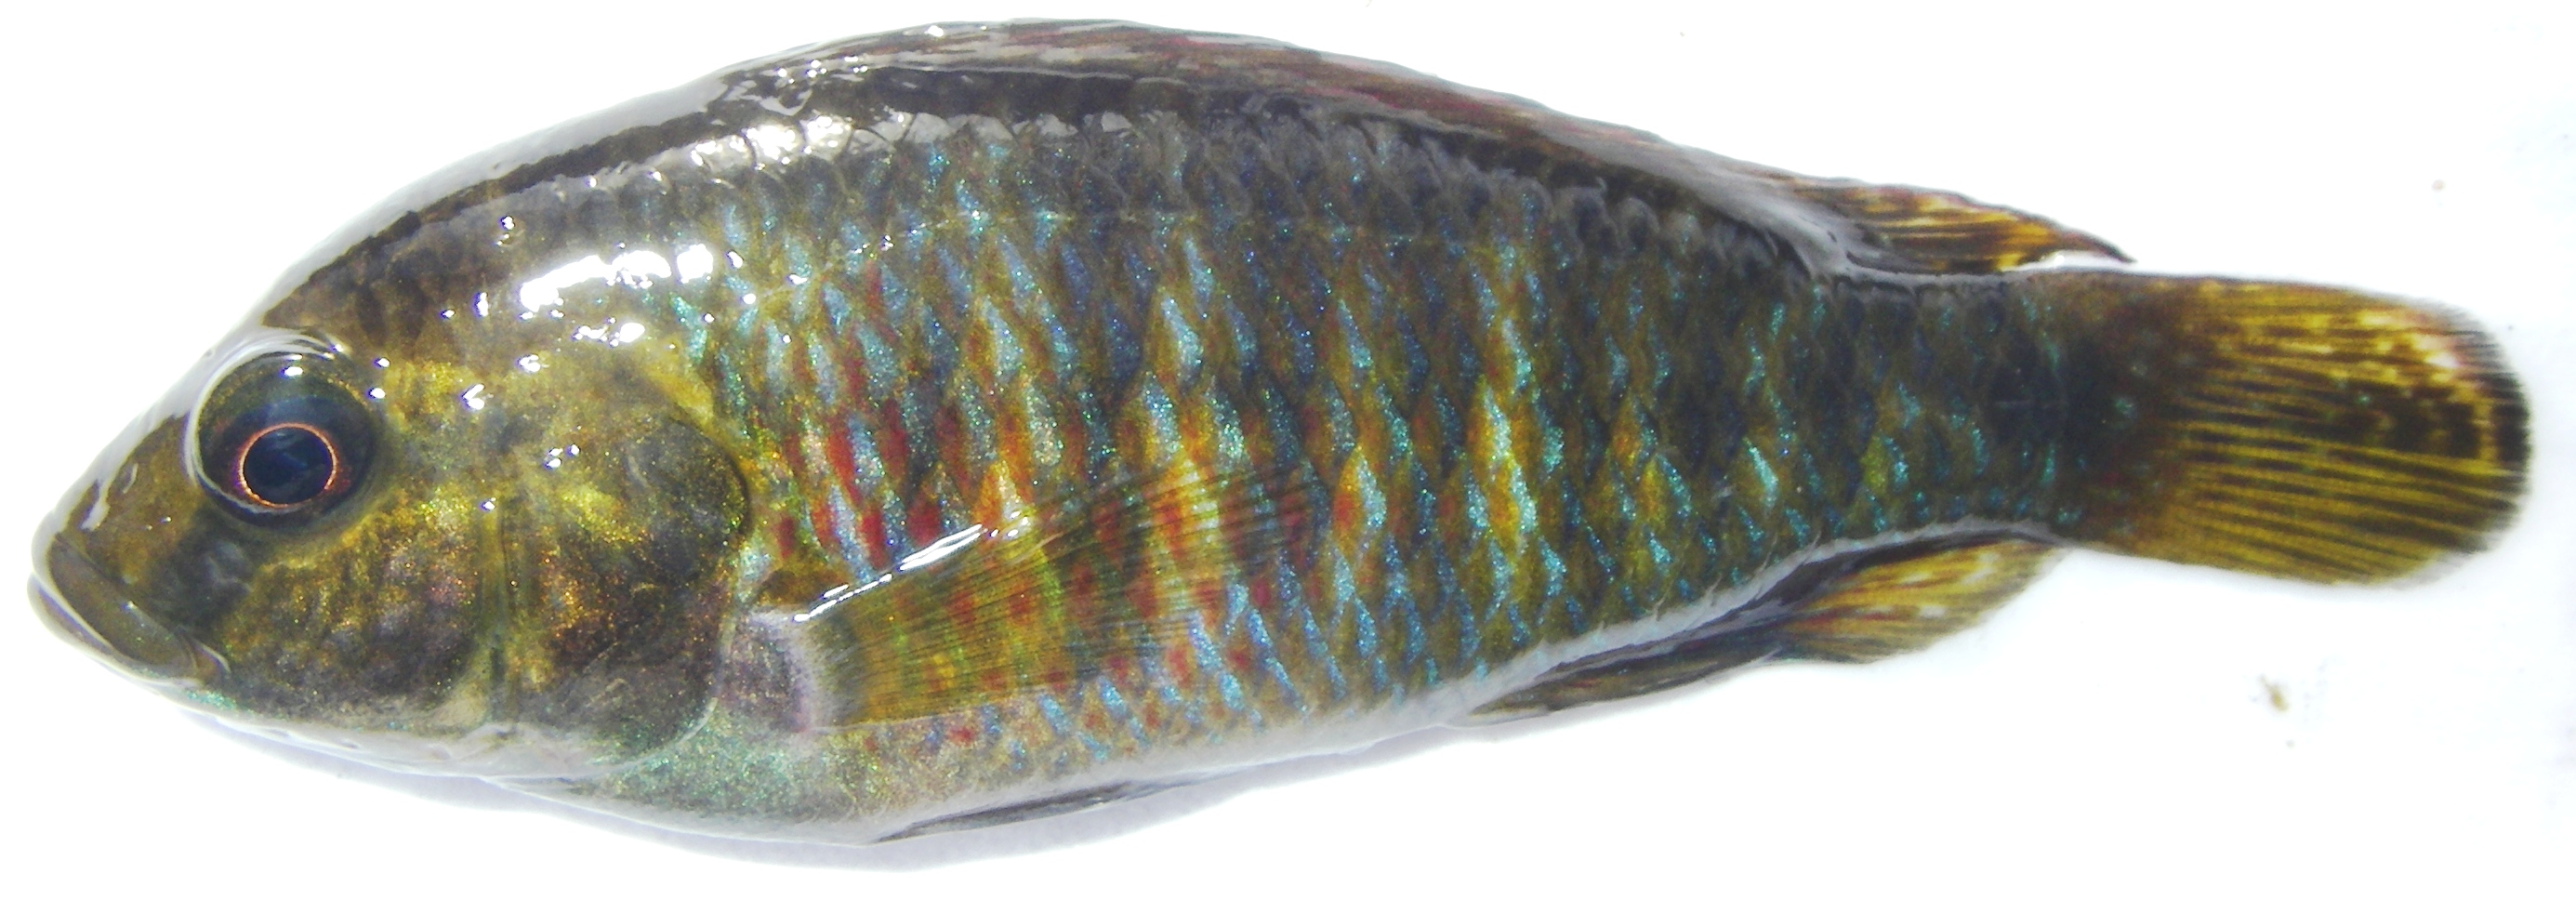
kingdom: Animalia
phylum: Chordata
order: Perciformes
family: Cichlidae
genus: Pseudocrenilabrus
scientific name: Pseudocrenilabrus philander
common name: Southern mouthbrooder
